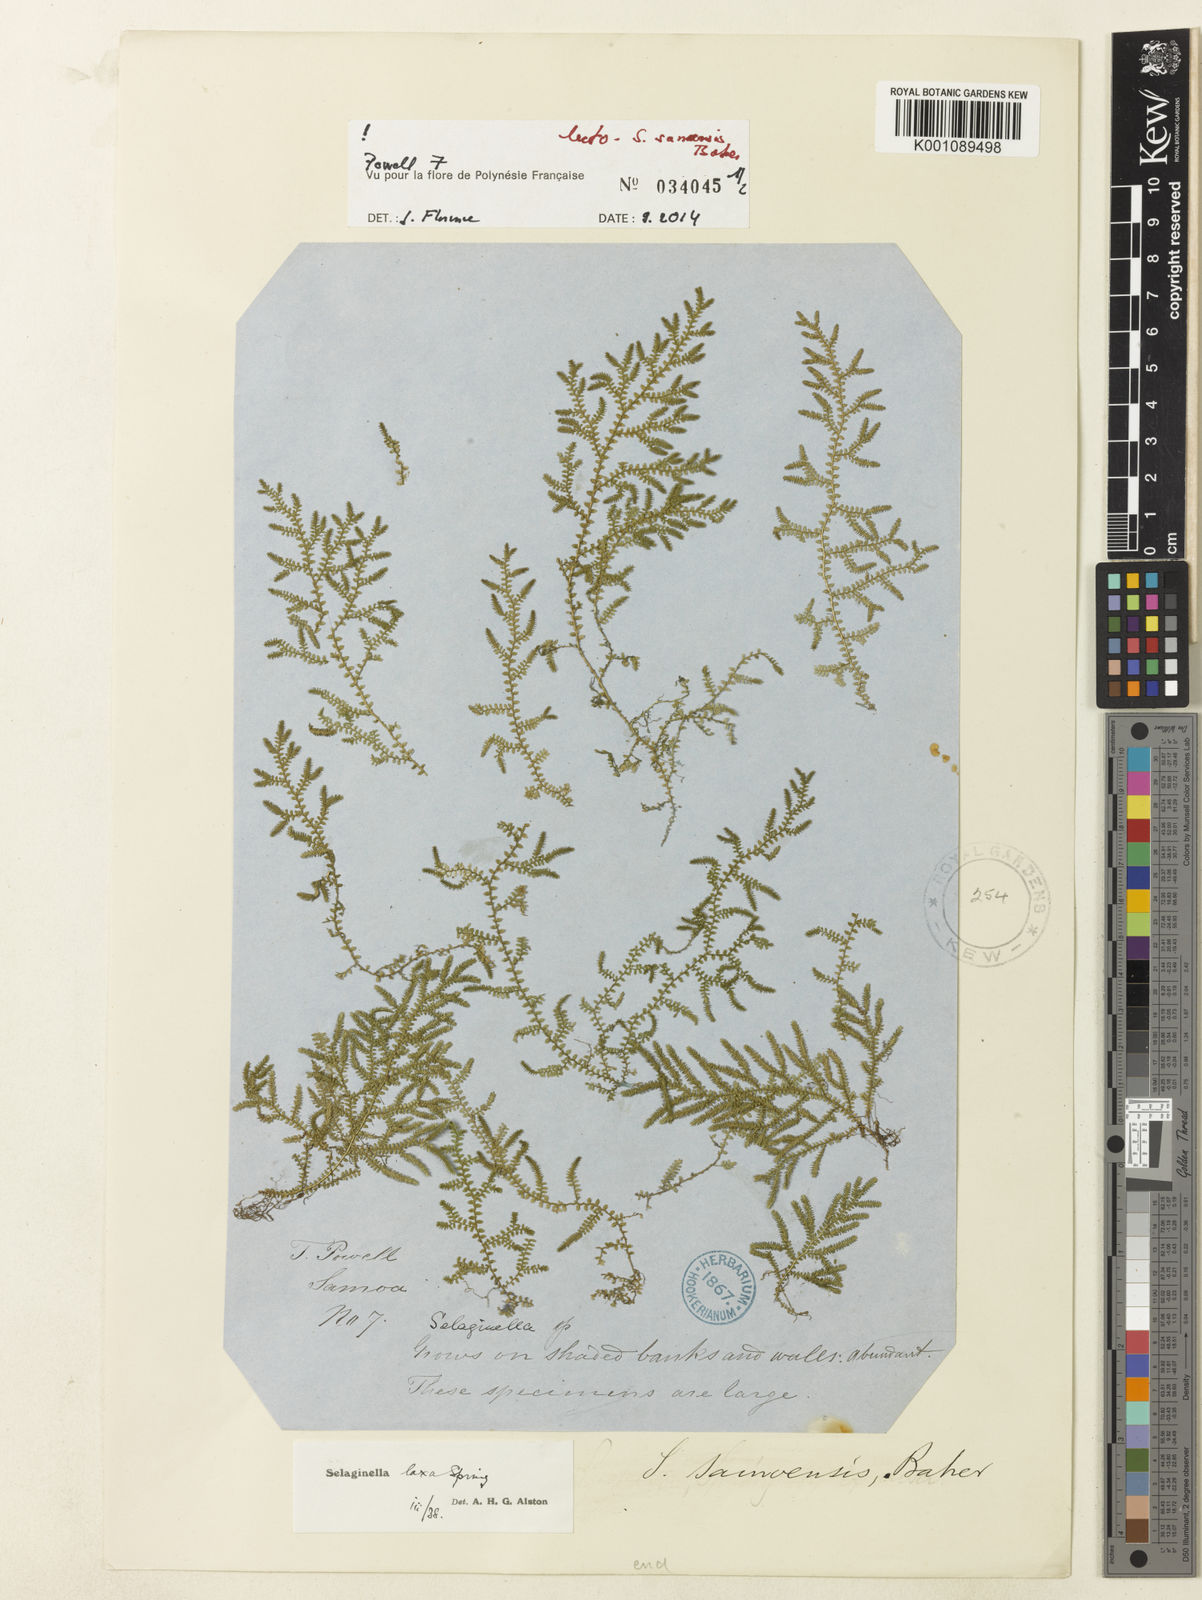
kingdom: Plantae
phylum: Tracheophyta
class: Lycopodiopsida
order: Selaginellales
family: Selaginellaceae
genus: Selaginella
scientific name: Selaginella laxa
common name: Lax spikemoss
